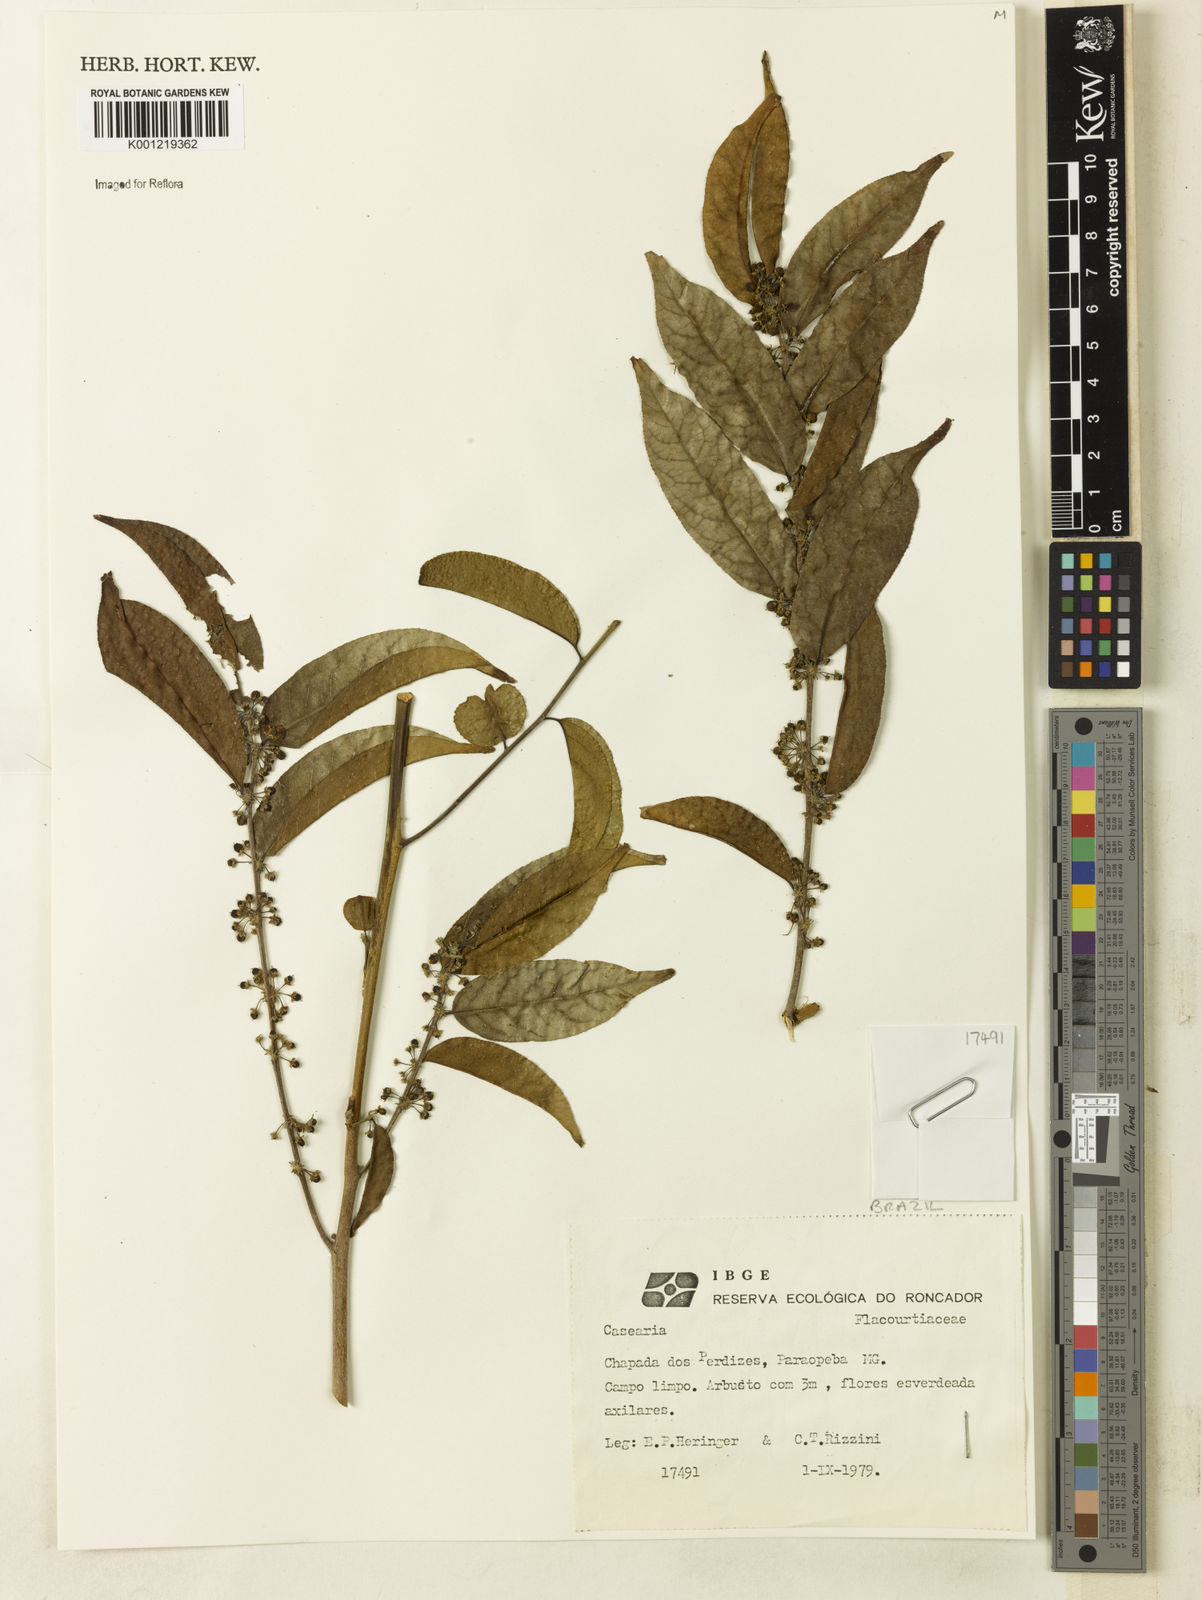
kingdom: Plantae
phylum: Tracheophyta
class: Magnoliopsida
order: Malpighiales
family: Salicaceae
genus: Casearia
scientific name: Casearia
